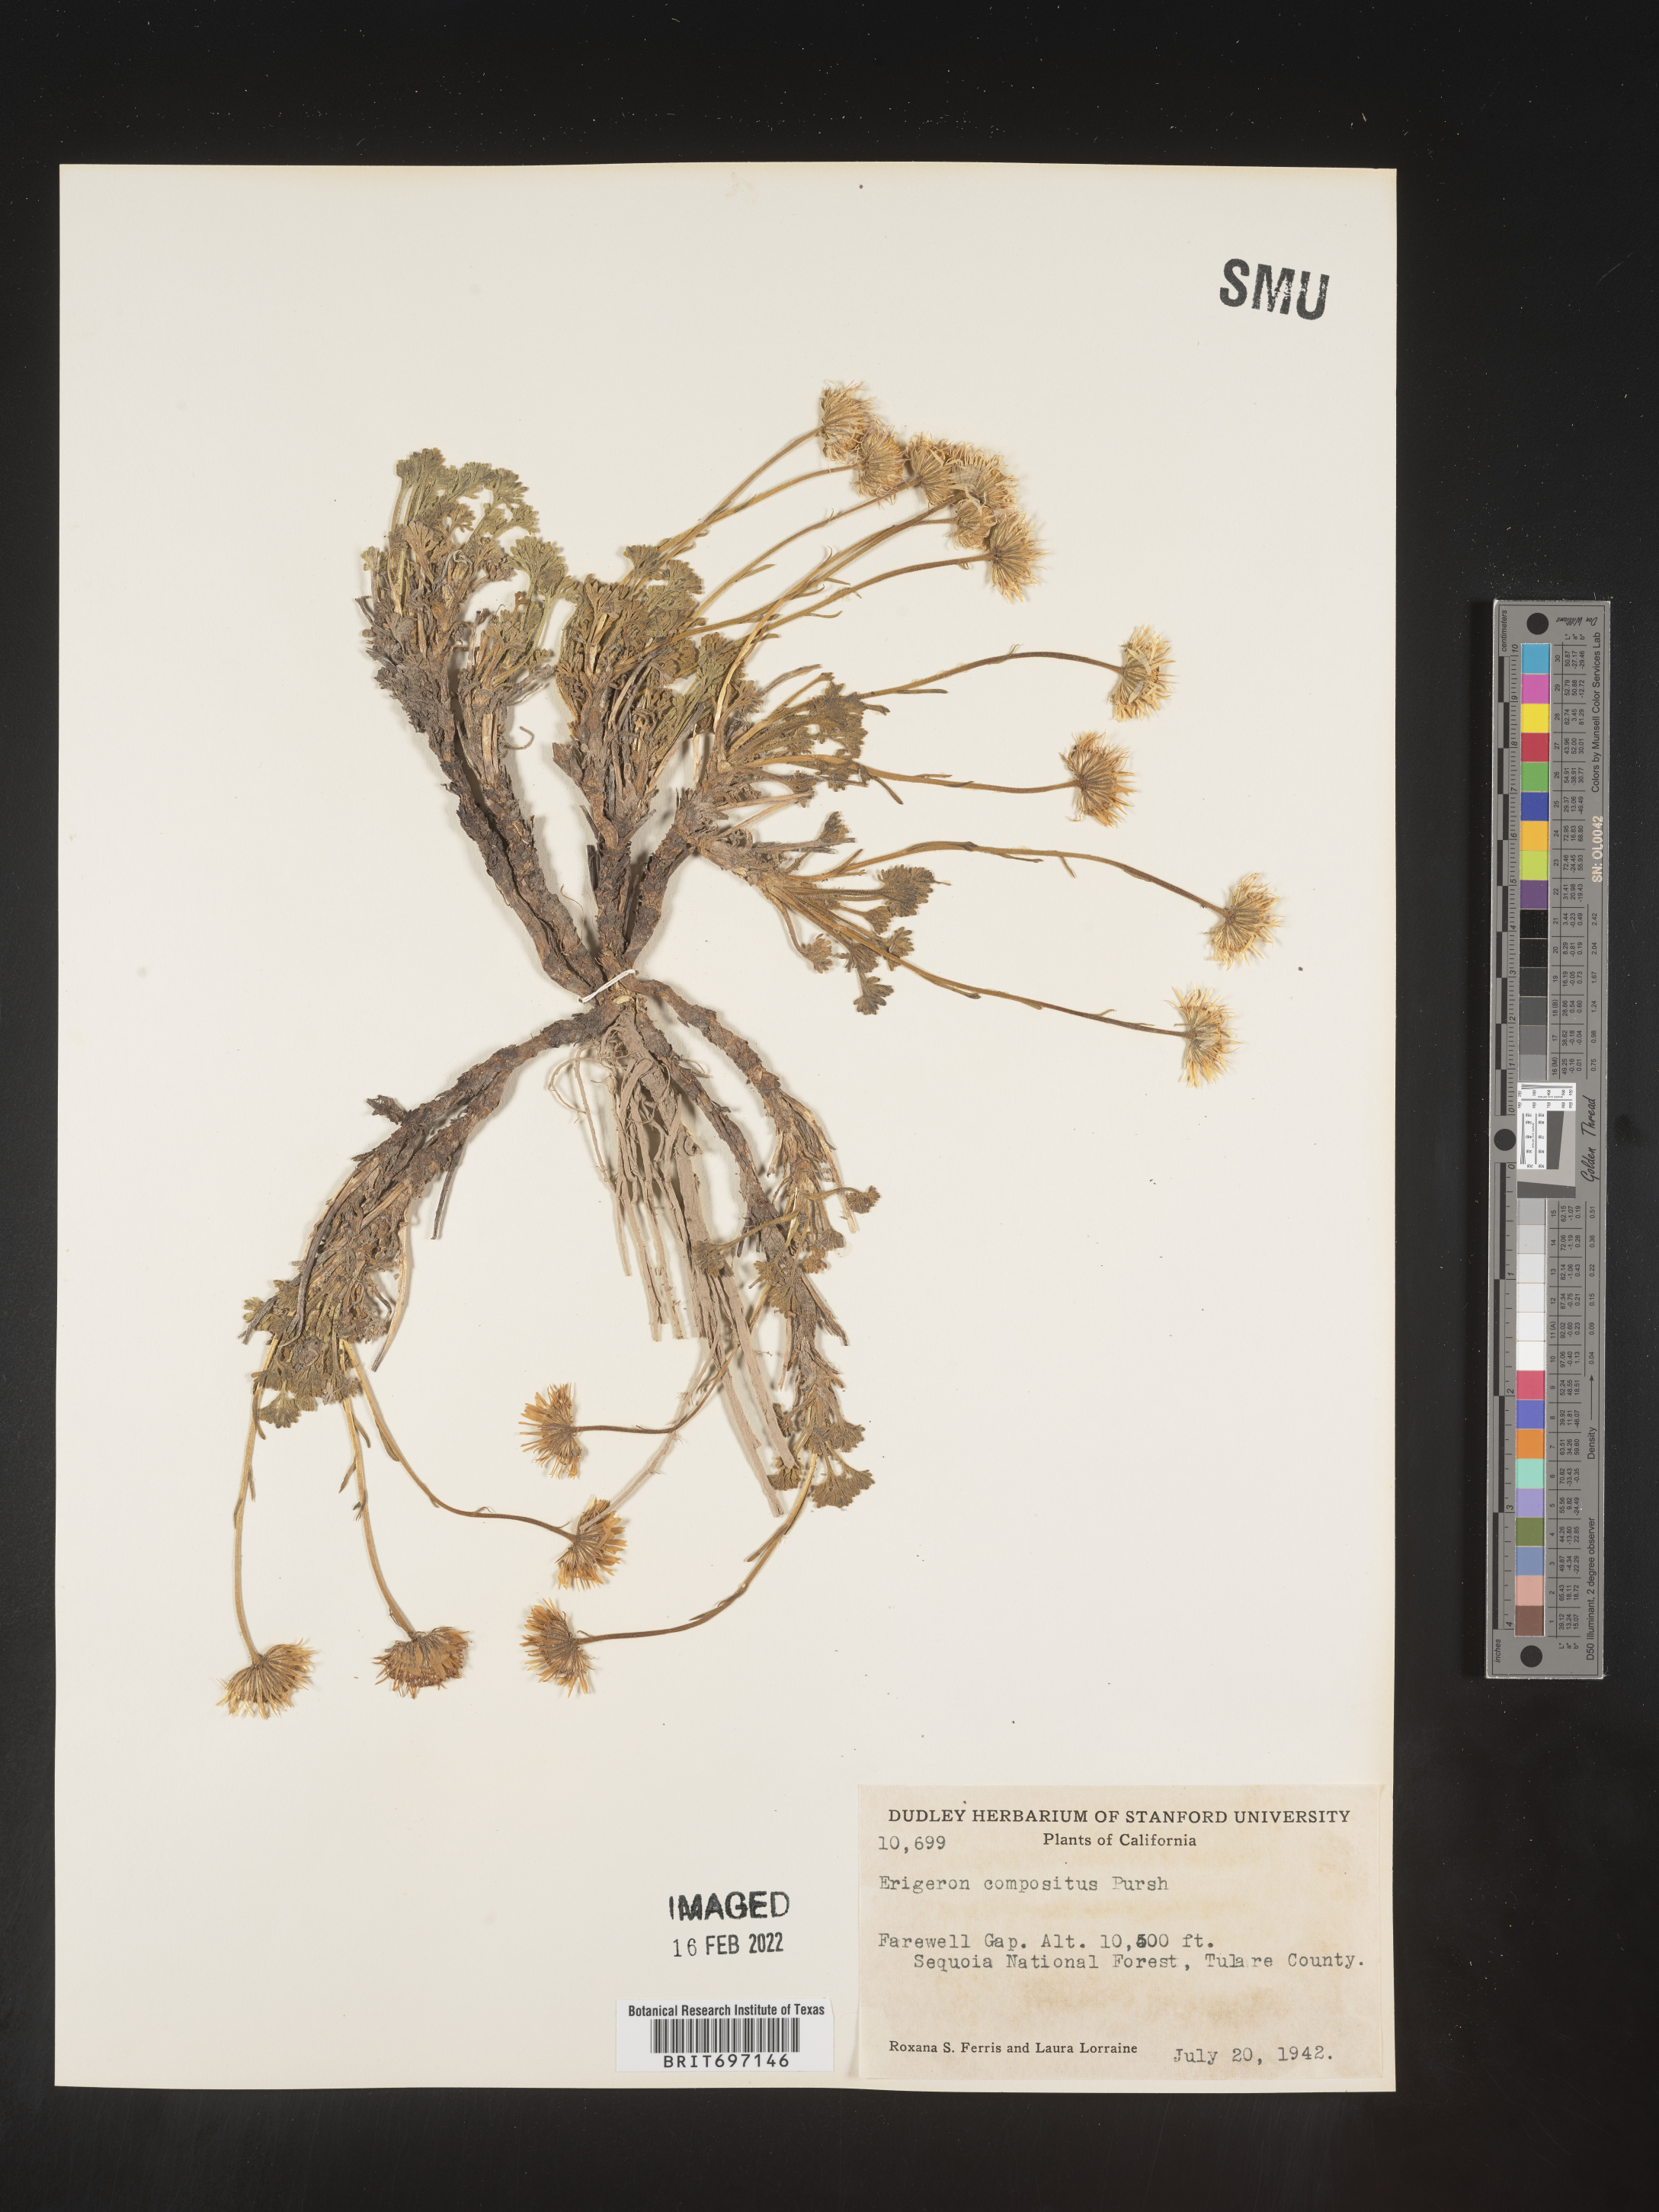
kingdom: Plantae
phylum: Tracheophyta
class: Magnoliopsida
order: Asterales
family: Asteraceae
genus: Erigeron
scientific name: Erigeron compositus
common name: Dwarf mountain fleabane
